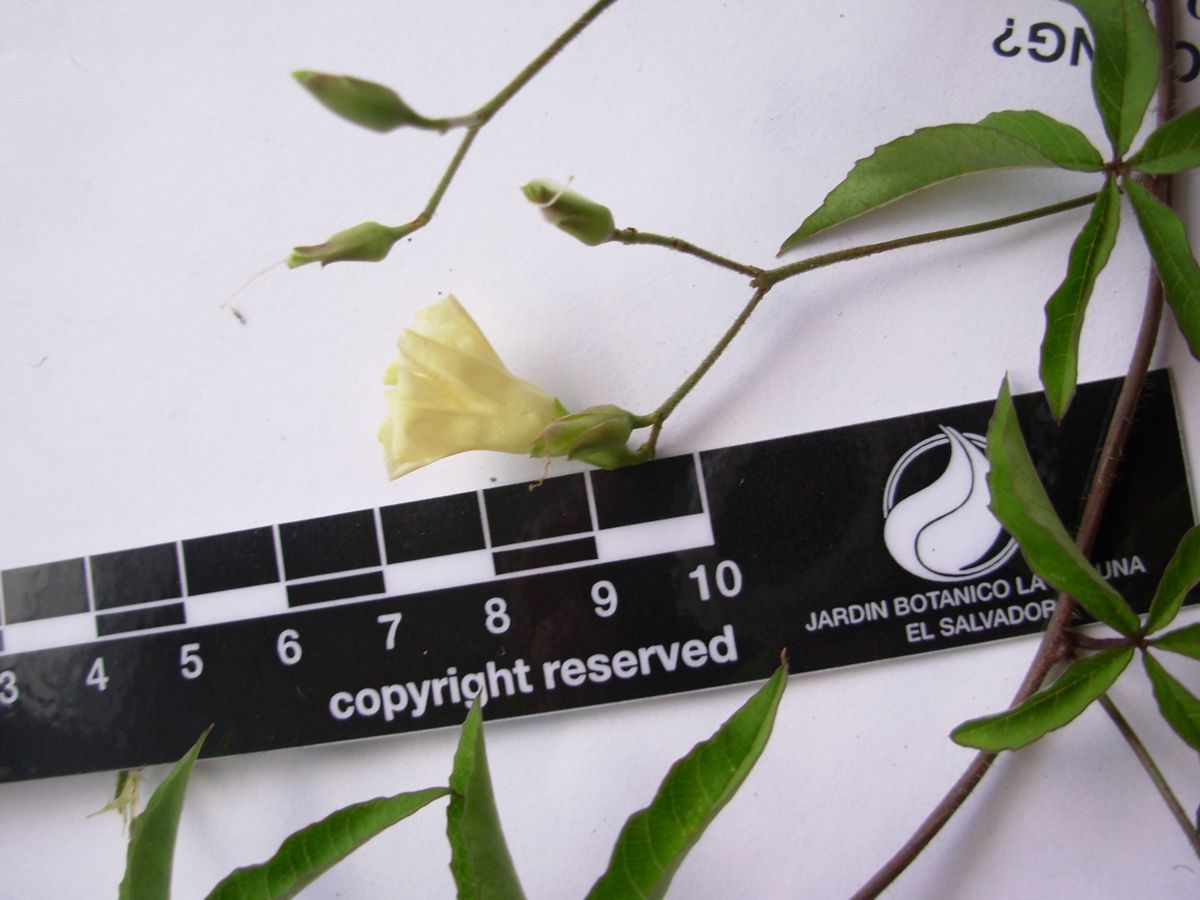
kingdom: Plantae
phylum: Tracheophyta
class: Magnoliopsida
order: Solanales
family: Convolvulaceae
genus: Distimake
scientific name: Distimake quinquefolius
